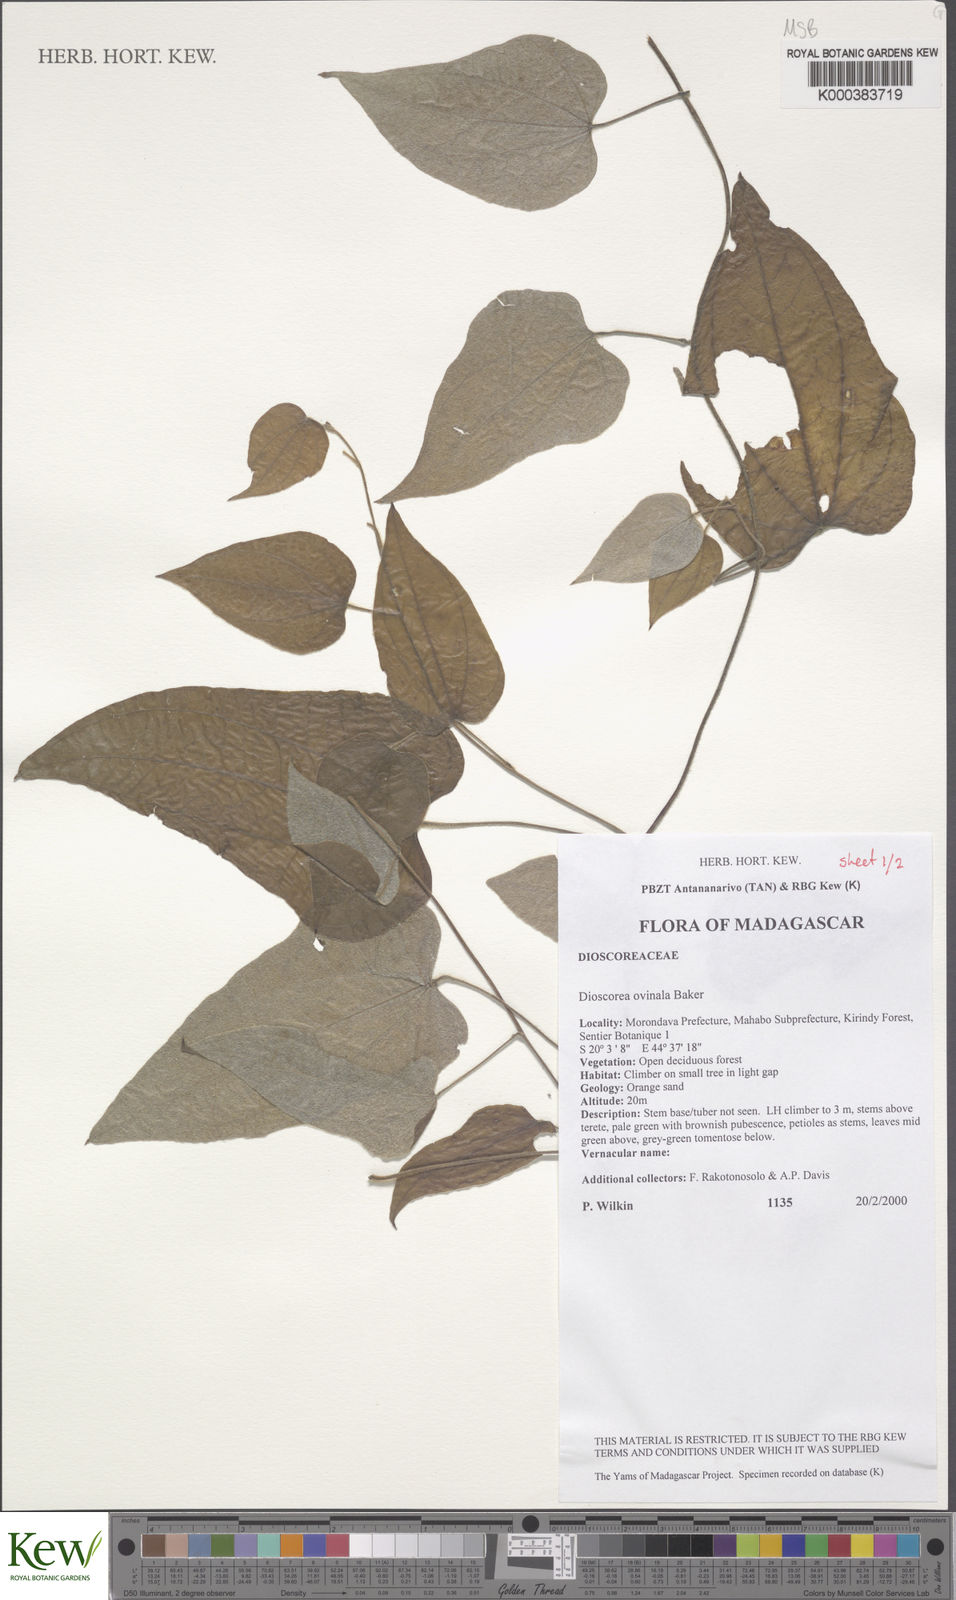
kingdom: Plantae
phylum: Tracheophyta
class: Liliopsida
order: Dioscoreales
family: Dioscoreaceae
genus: Dioscorea
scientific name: Dioscorea ovinala
